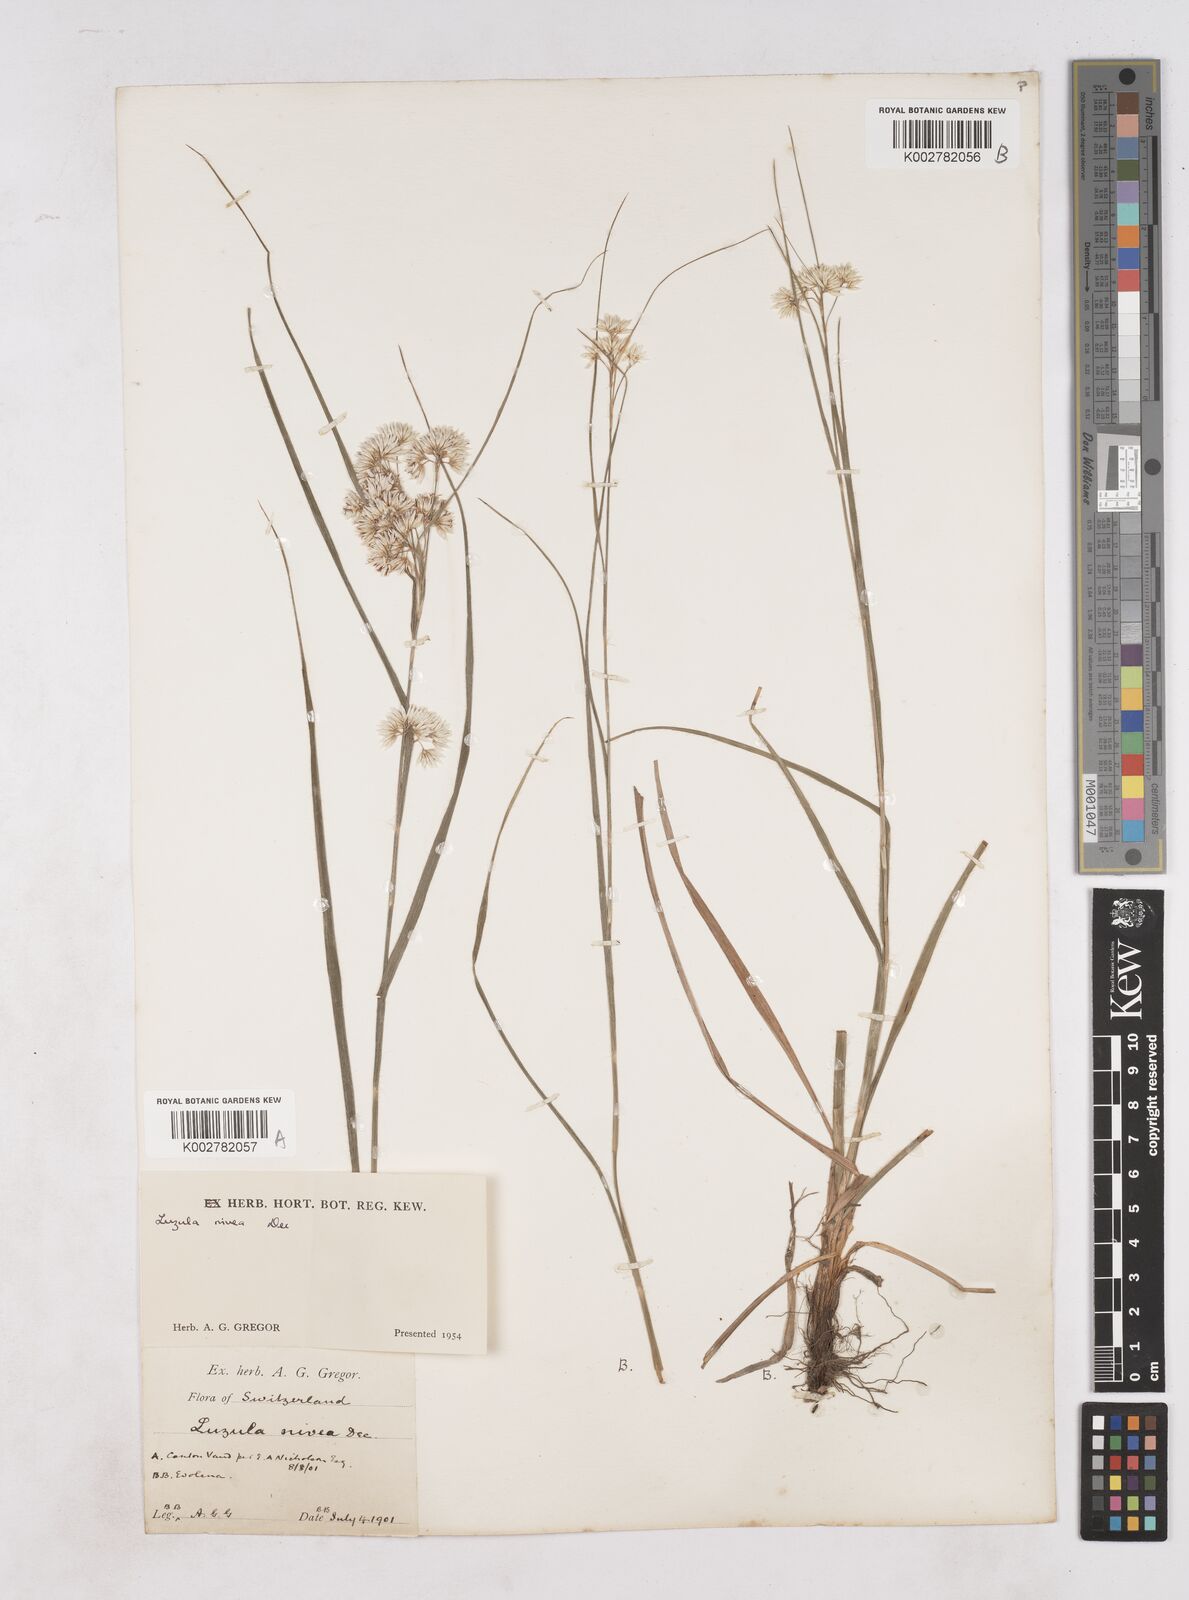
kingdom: Plantae
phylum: Tracheophyta
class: Liliopsida
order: Poales
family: Juncaceae
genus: Luzula
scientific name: Luzula nivea
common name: Snow-white wood-rush
